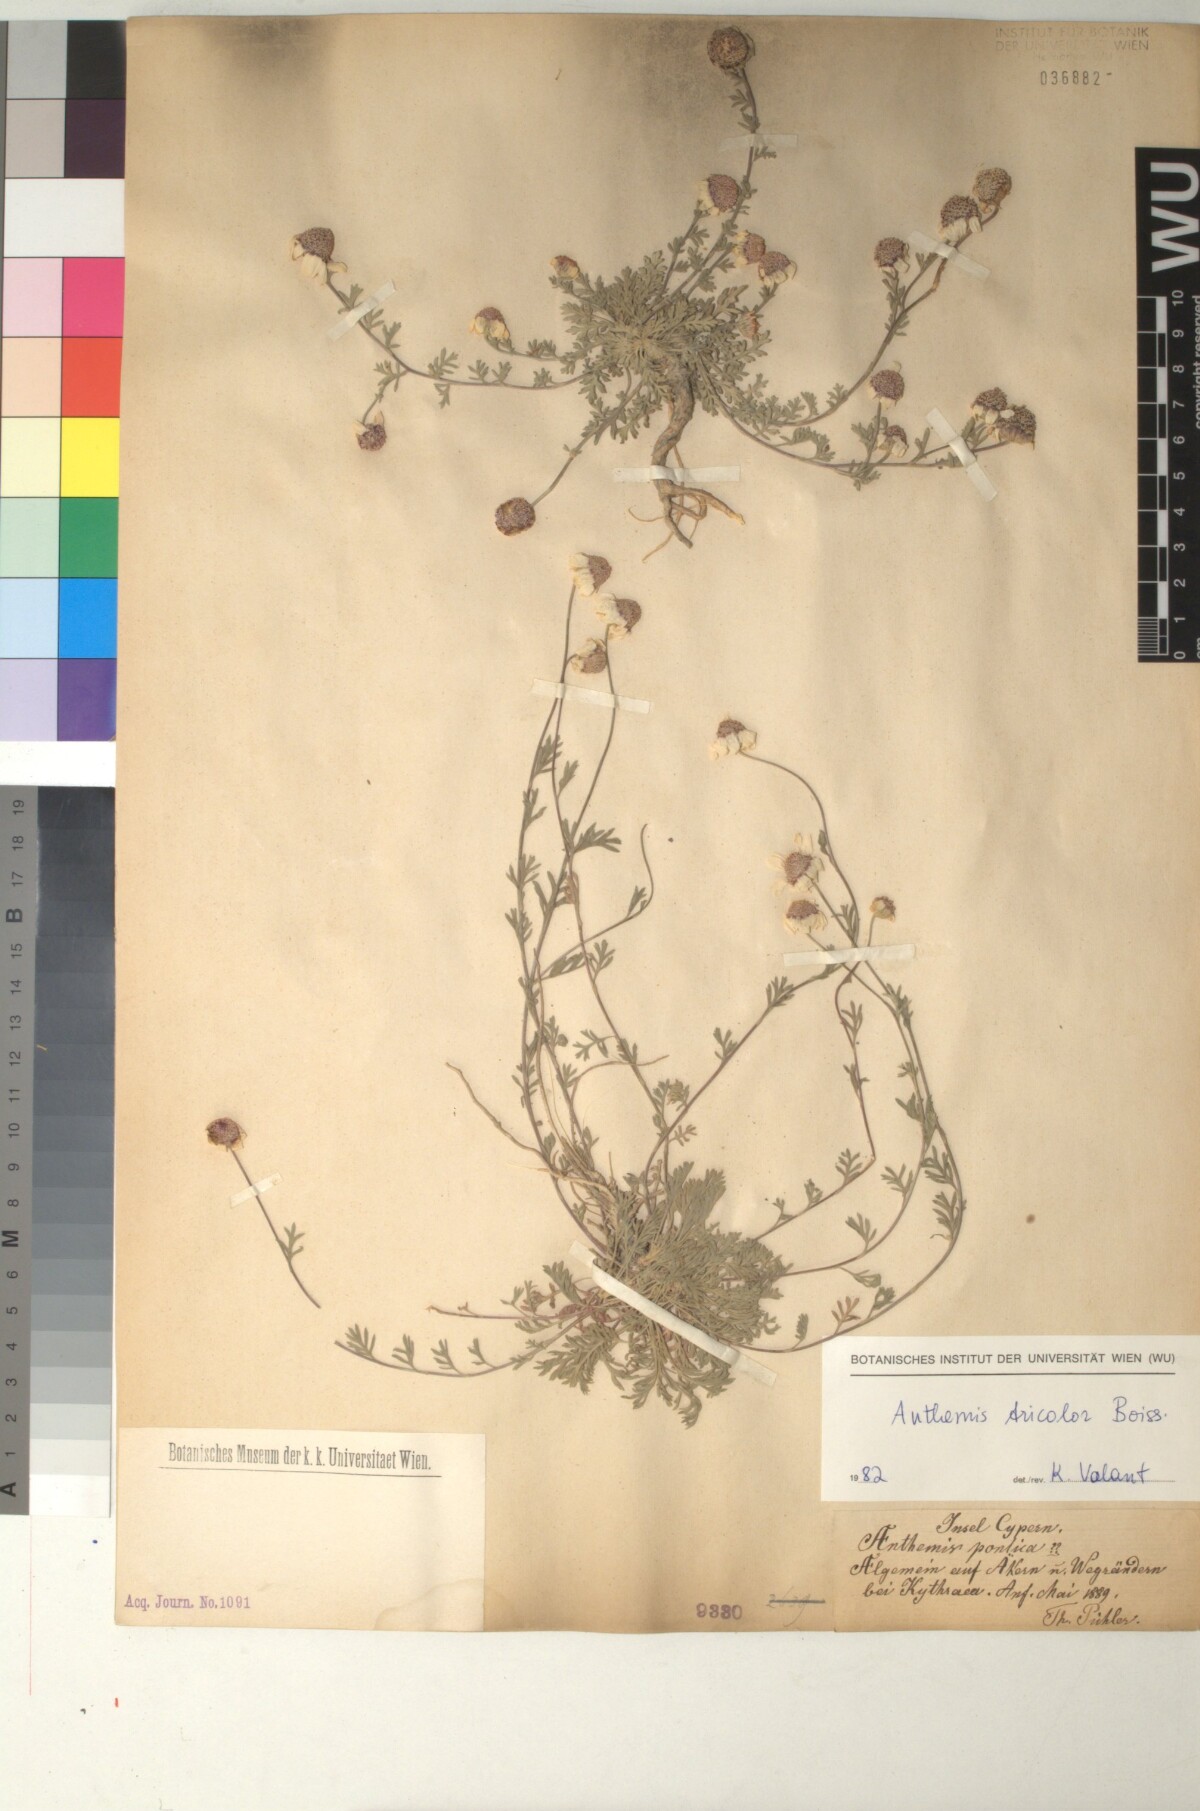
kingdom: Plantae
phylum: Tracheophyta
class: Magnoliopsida
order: Asterales
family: Asteraceae
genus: Anthemis
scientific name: Anthemis tricolor
